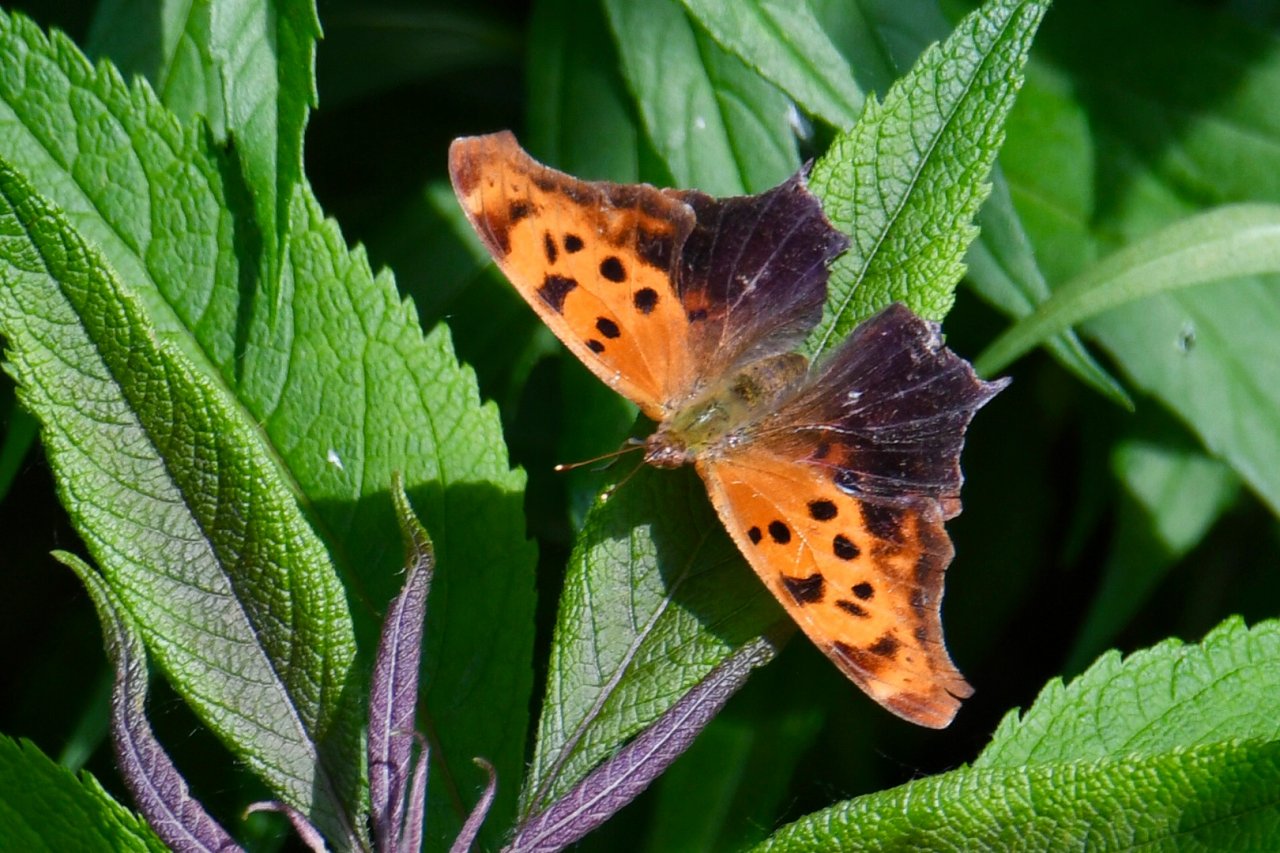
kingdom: Animalia
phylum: Arthropoda
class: Insecta
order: Lepidoptera
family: Nymphalidae
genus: Polygonia
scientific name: Polygonia interrogationis
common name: Question Mark
